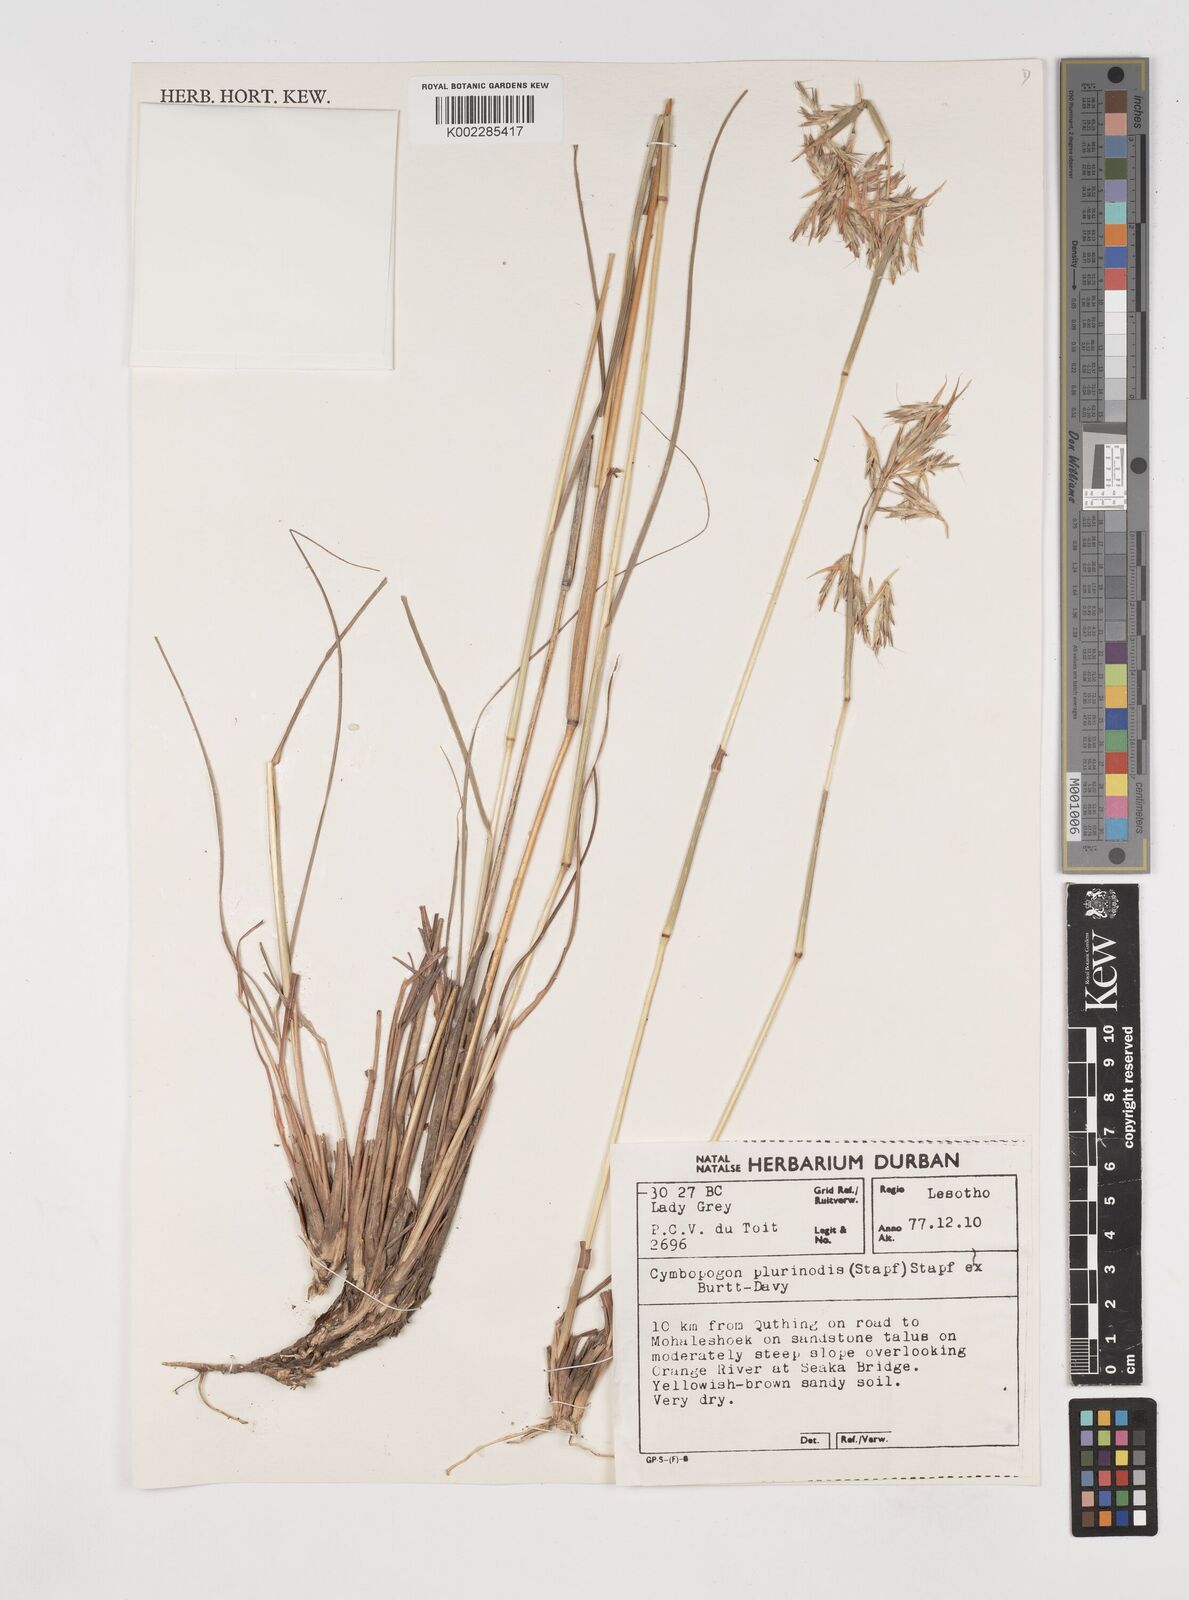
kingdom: Plantae
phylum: Tracheophyta
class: Liliopsida
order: Poales
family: Poaceae
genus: Cymbopogon
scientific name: Cymbopogon
